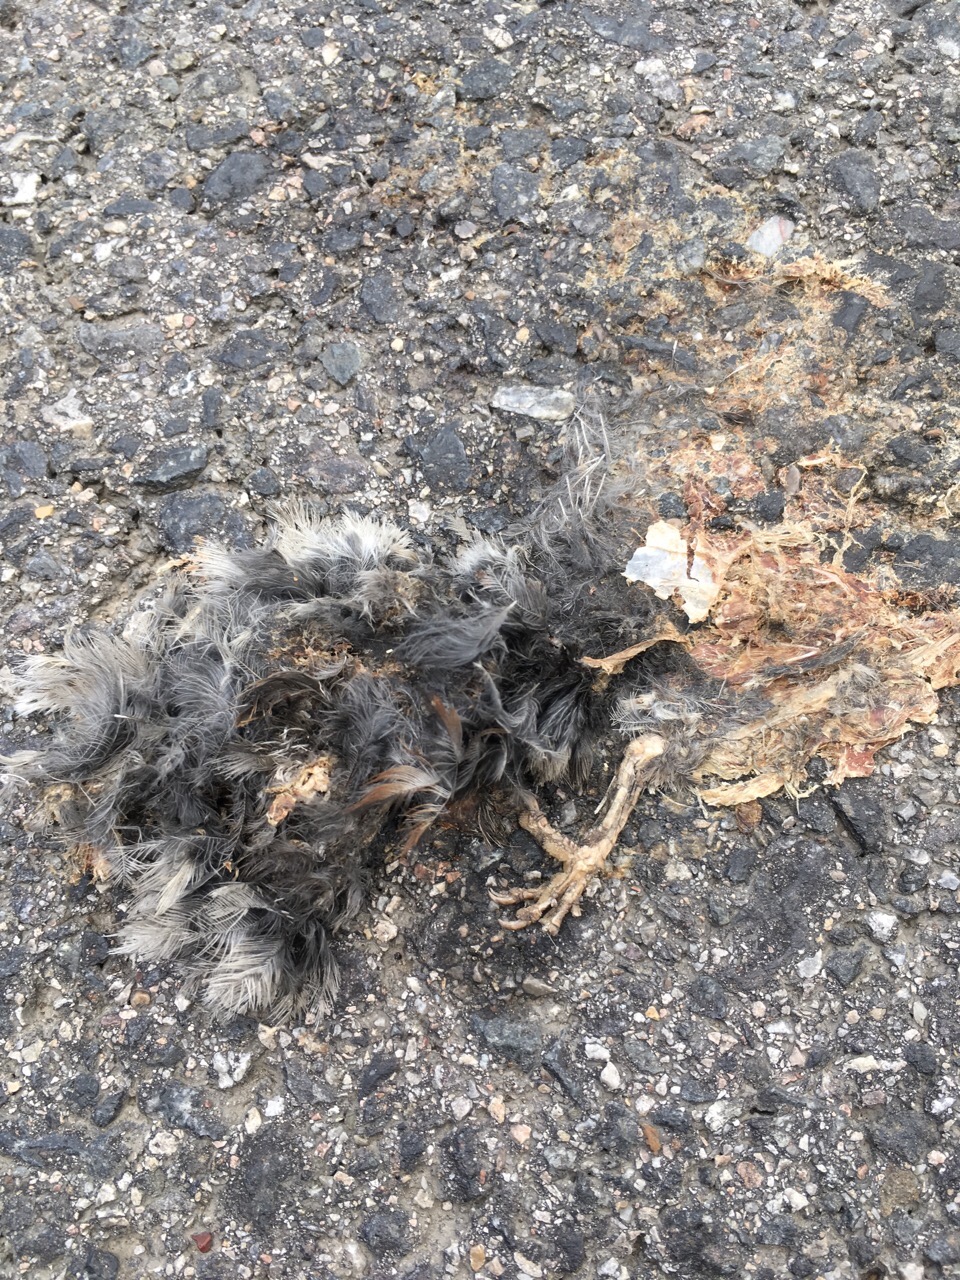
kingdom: Animalia
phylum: Chordata
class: Aves
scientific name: Aves
